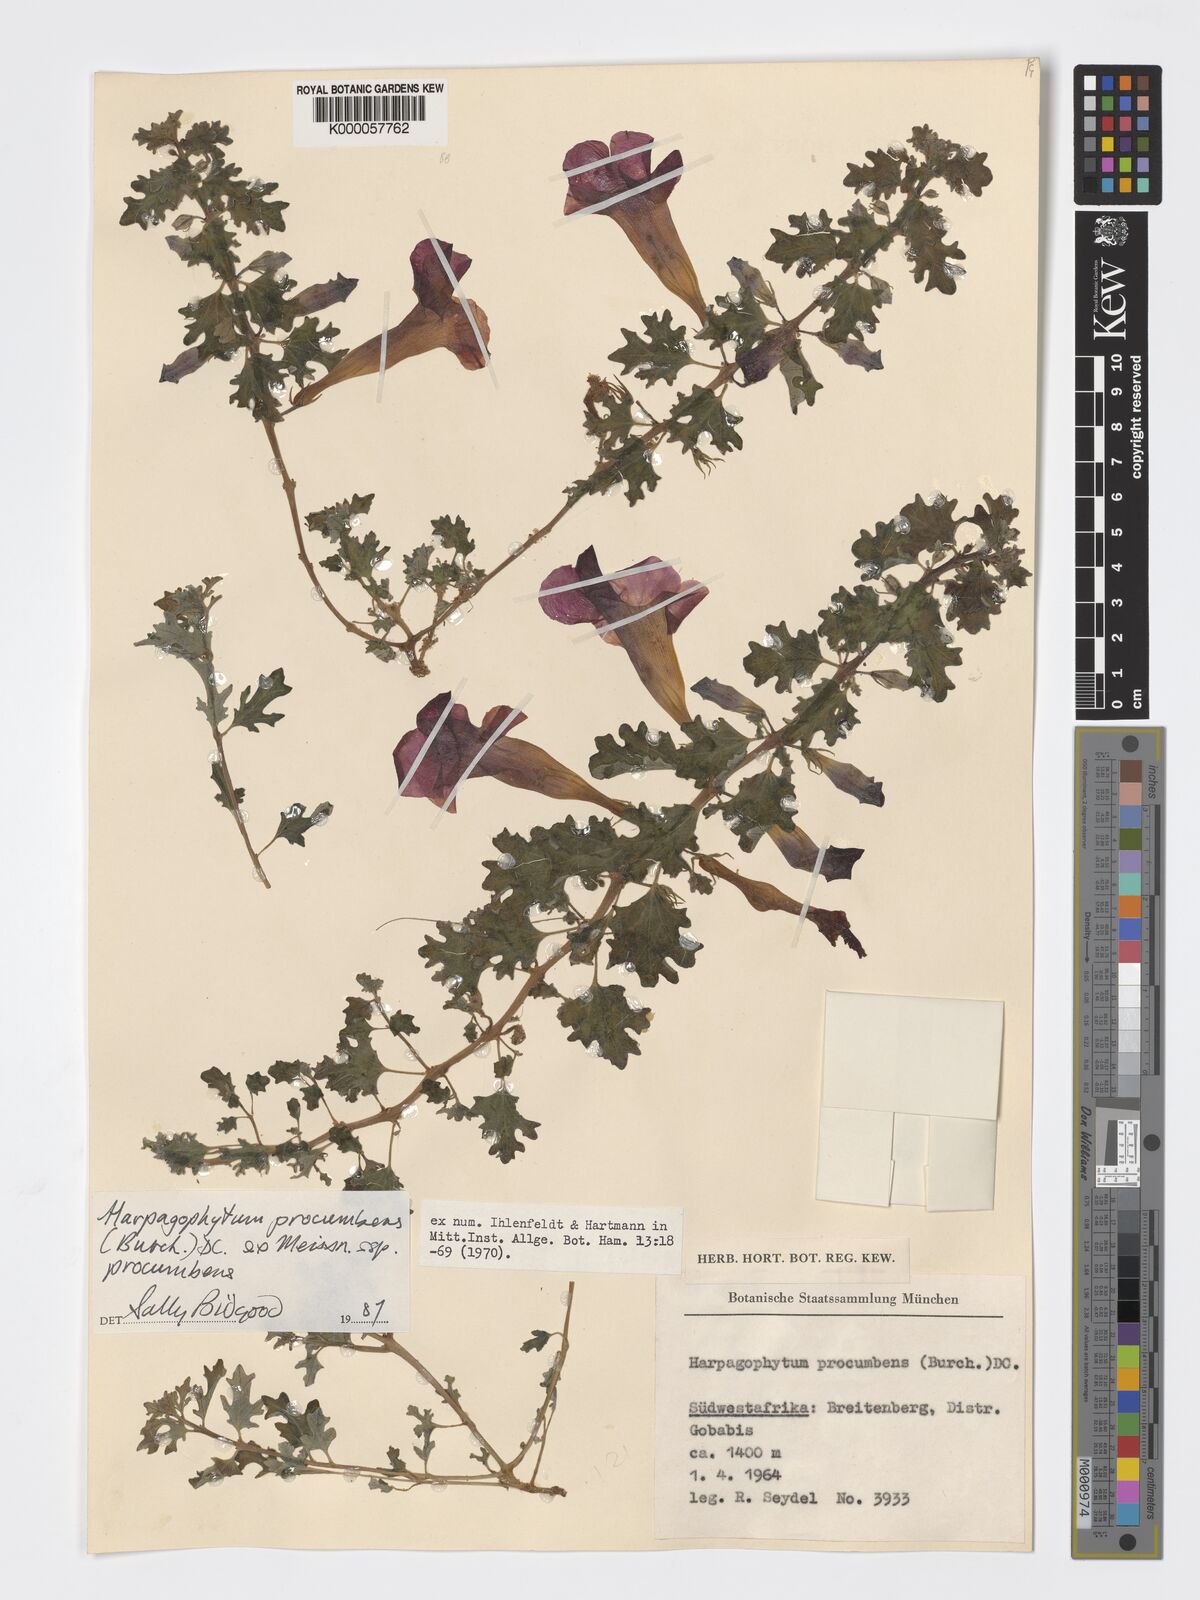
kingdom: Plantae
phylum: Tracheophyta
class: Magnoliopsida
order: Lamiales
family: Pedaliaceae
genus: Harpagophytum
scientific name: Harpagophytum procumbens
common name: Grappleplant
